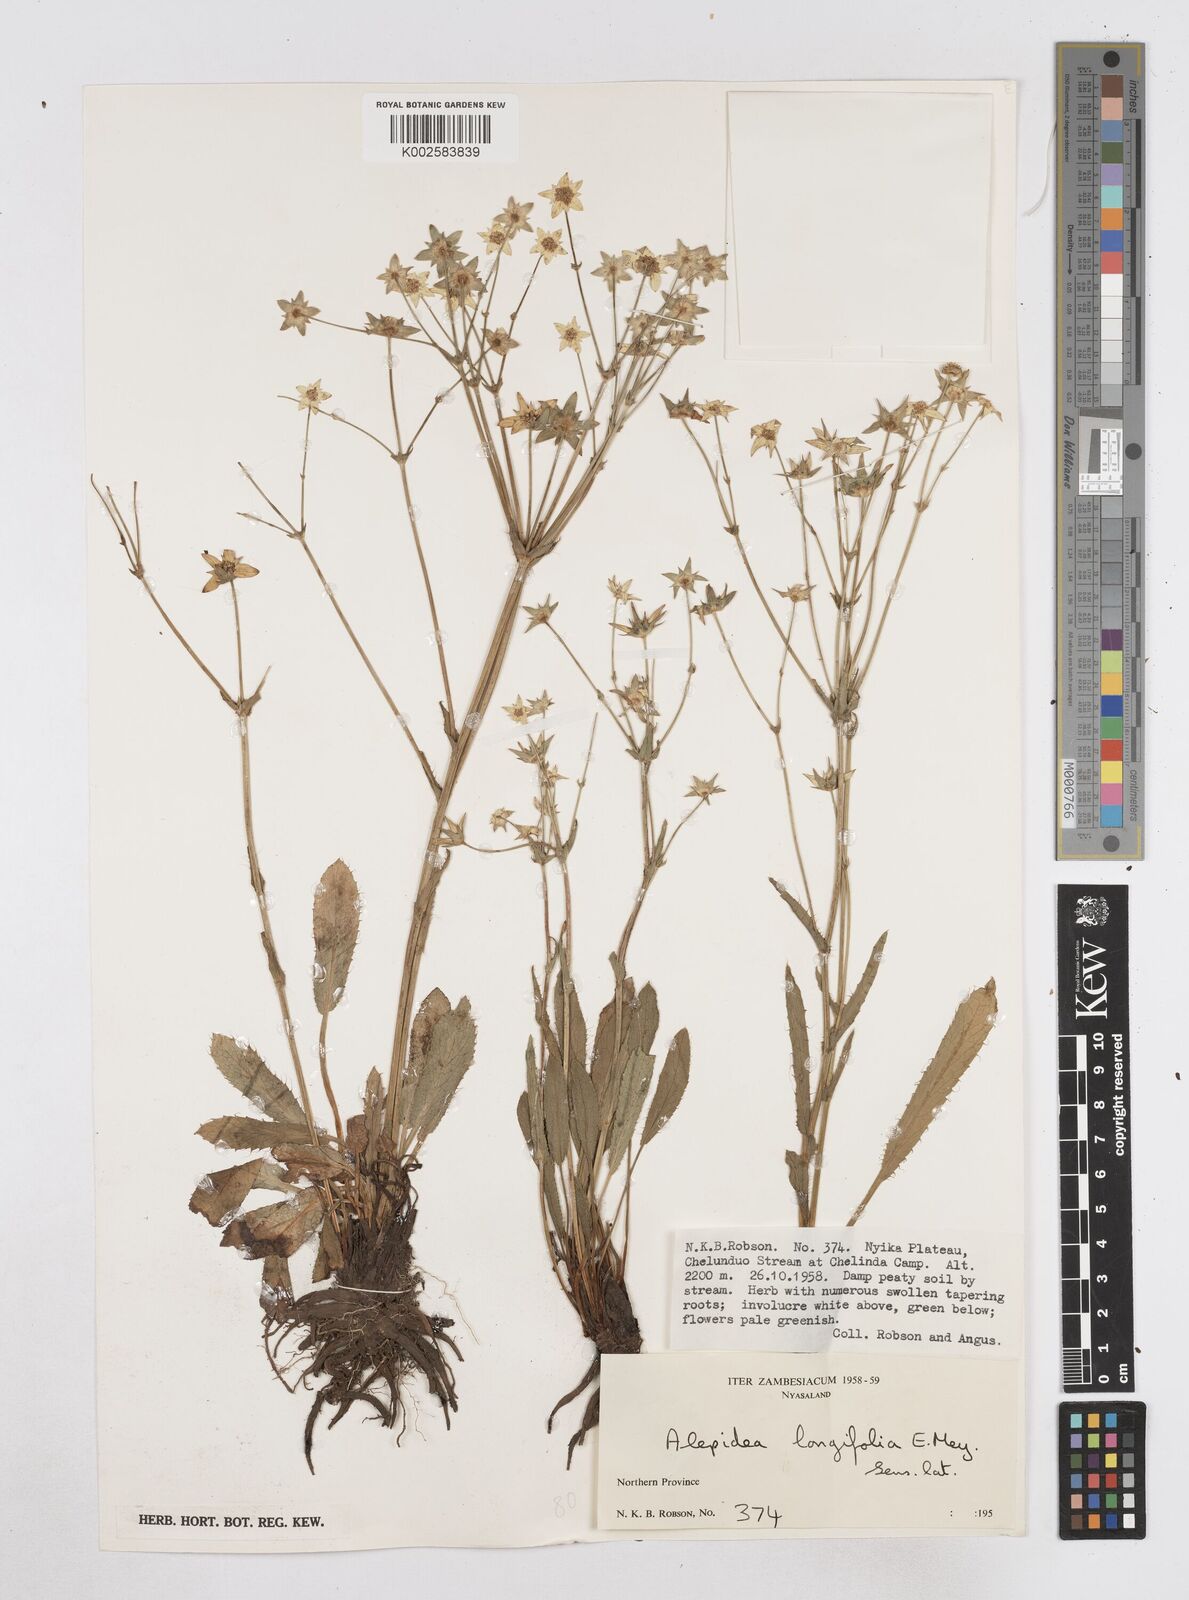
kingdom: Plantae
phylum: Tracheophyta
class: Magnoliopsida
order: Apiales
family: Apiaceae
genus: Alepidea
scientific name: Alepidea peduncularis
